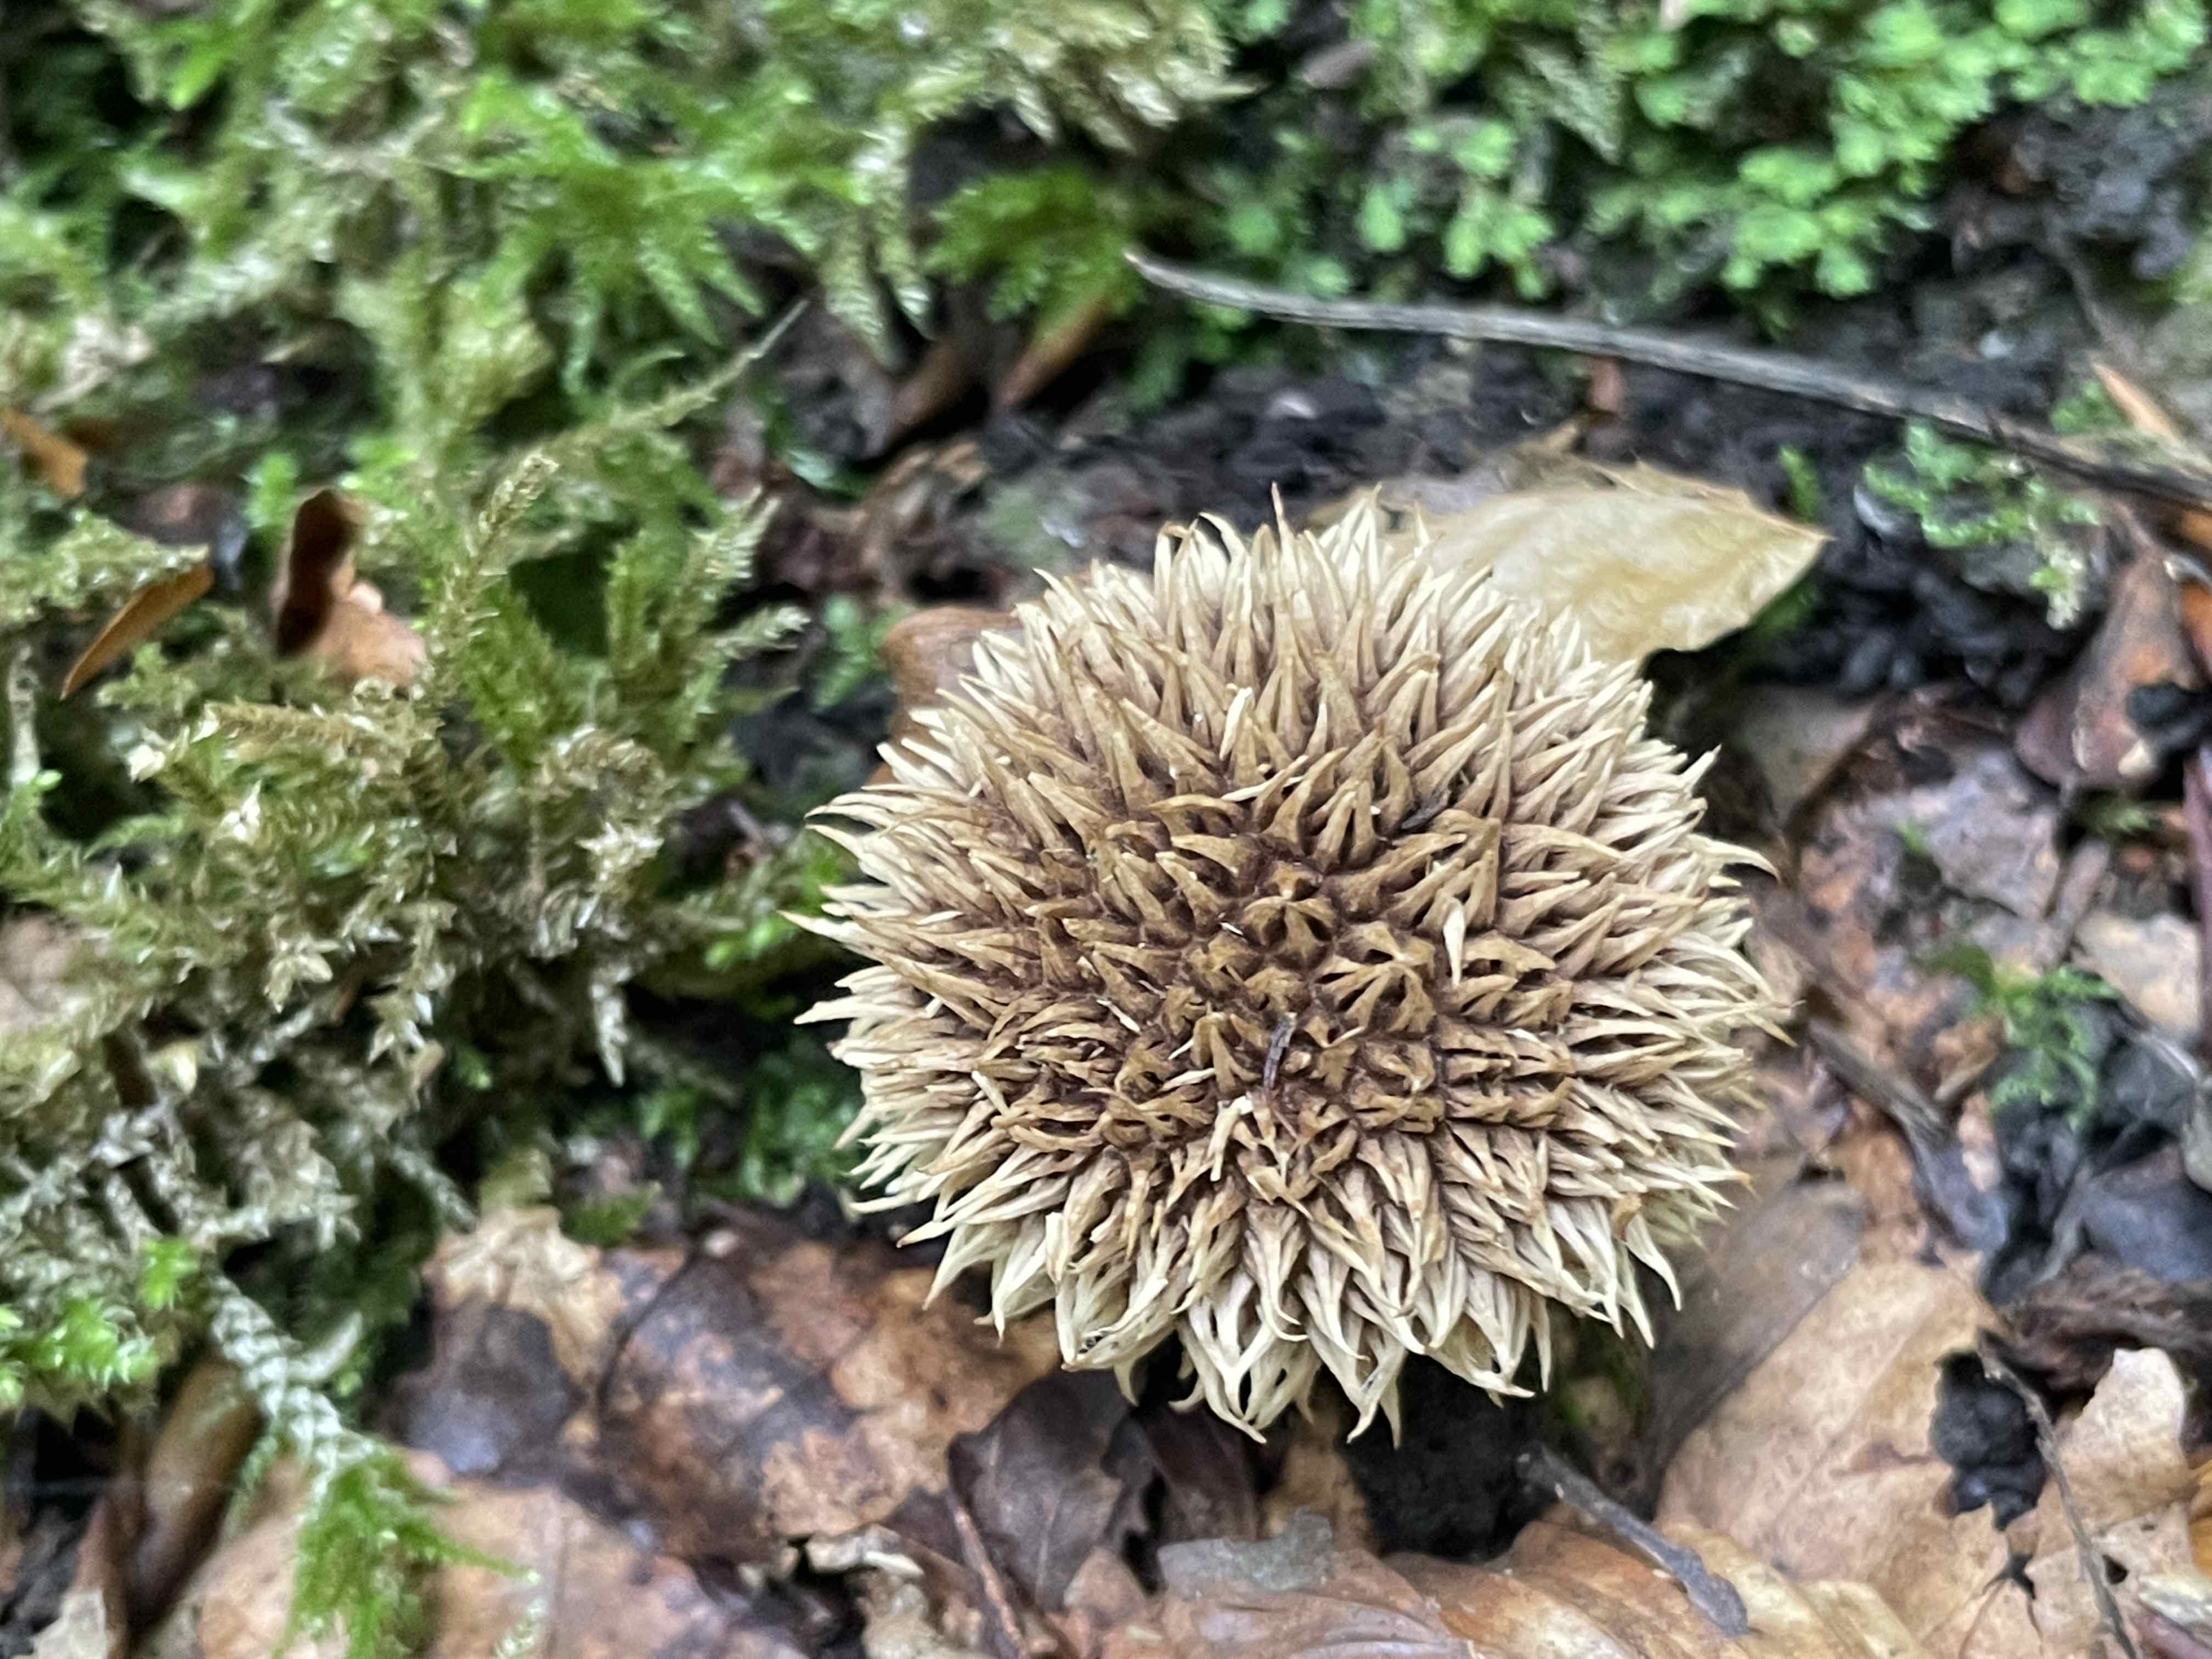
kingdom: Fungi
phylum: Basidiomycota
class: Agaricomycetes
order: Agaricales
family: Lycoperdaceae
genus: Lycoperdon
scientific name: Lycoperdon echinatum
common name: pindsvine-støvbold
